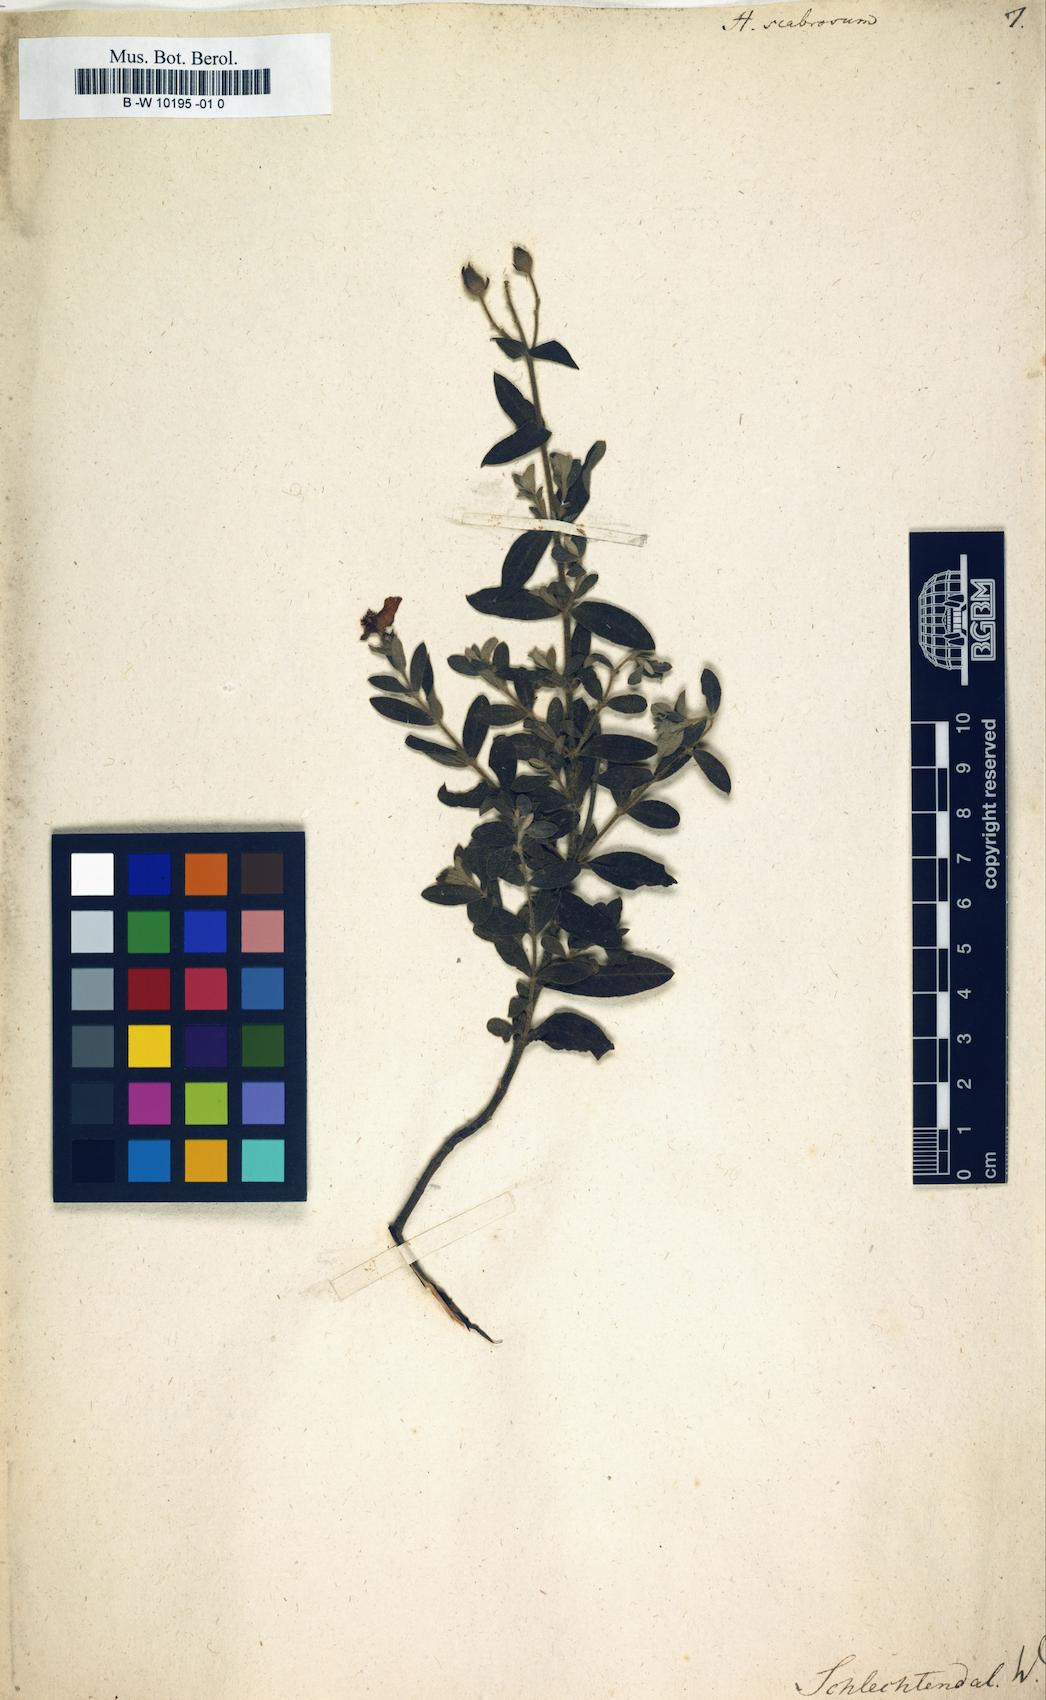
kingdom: Plantae
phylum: Tracheophyta
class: Magnoliopsida
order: Malvales
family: Cistaceae
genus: Halimium
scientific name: Halimium lasianthum
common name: Lisbon false sun-rose
